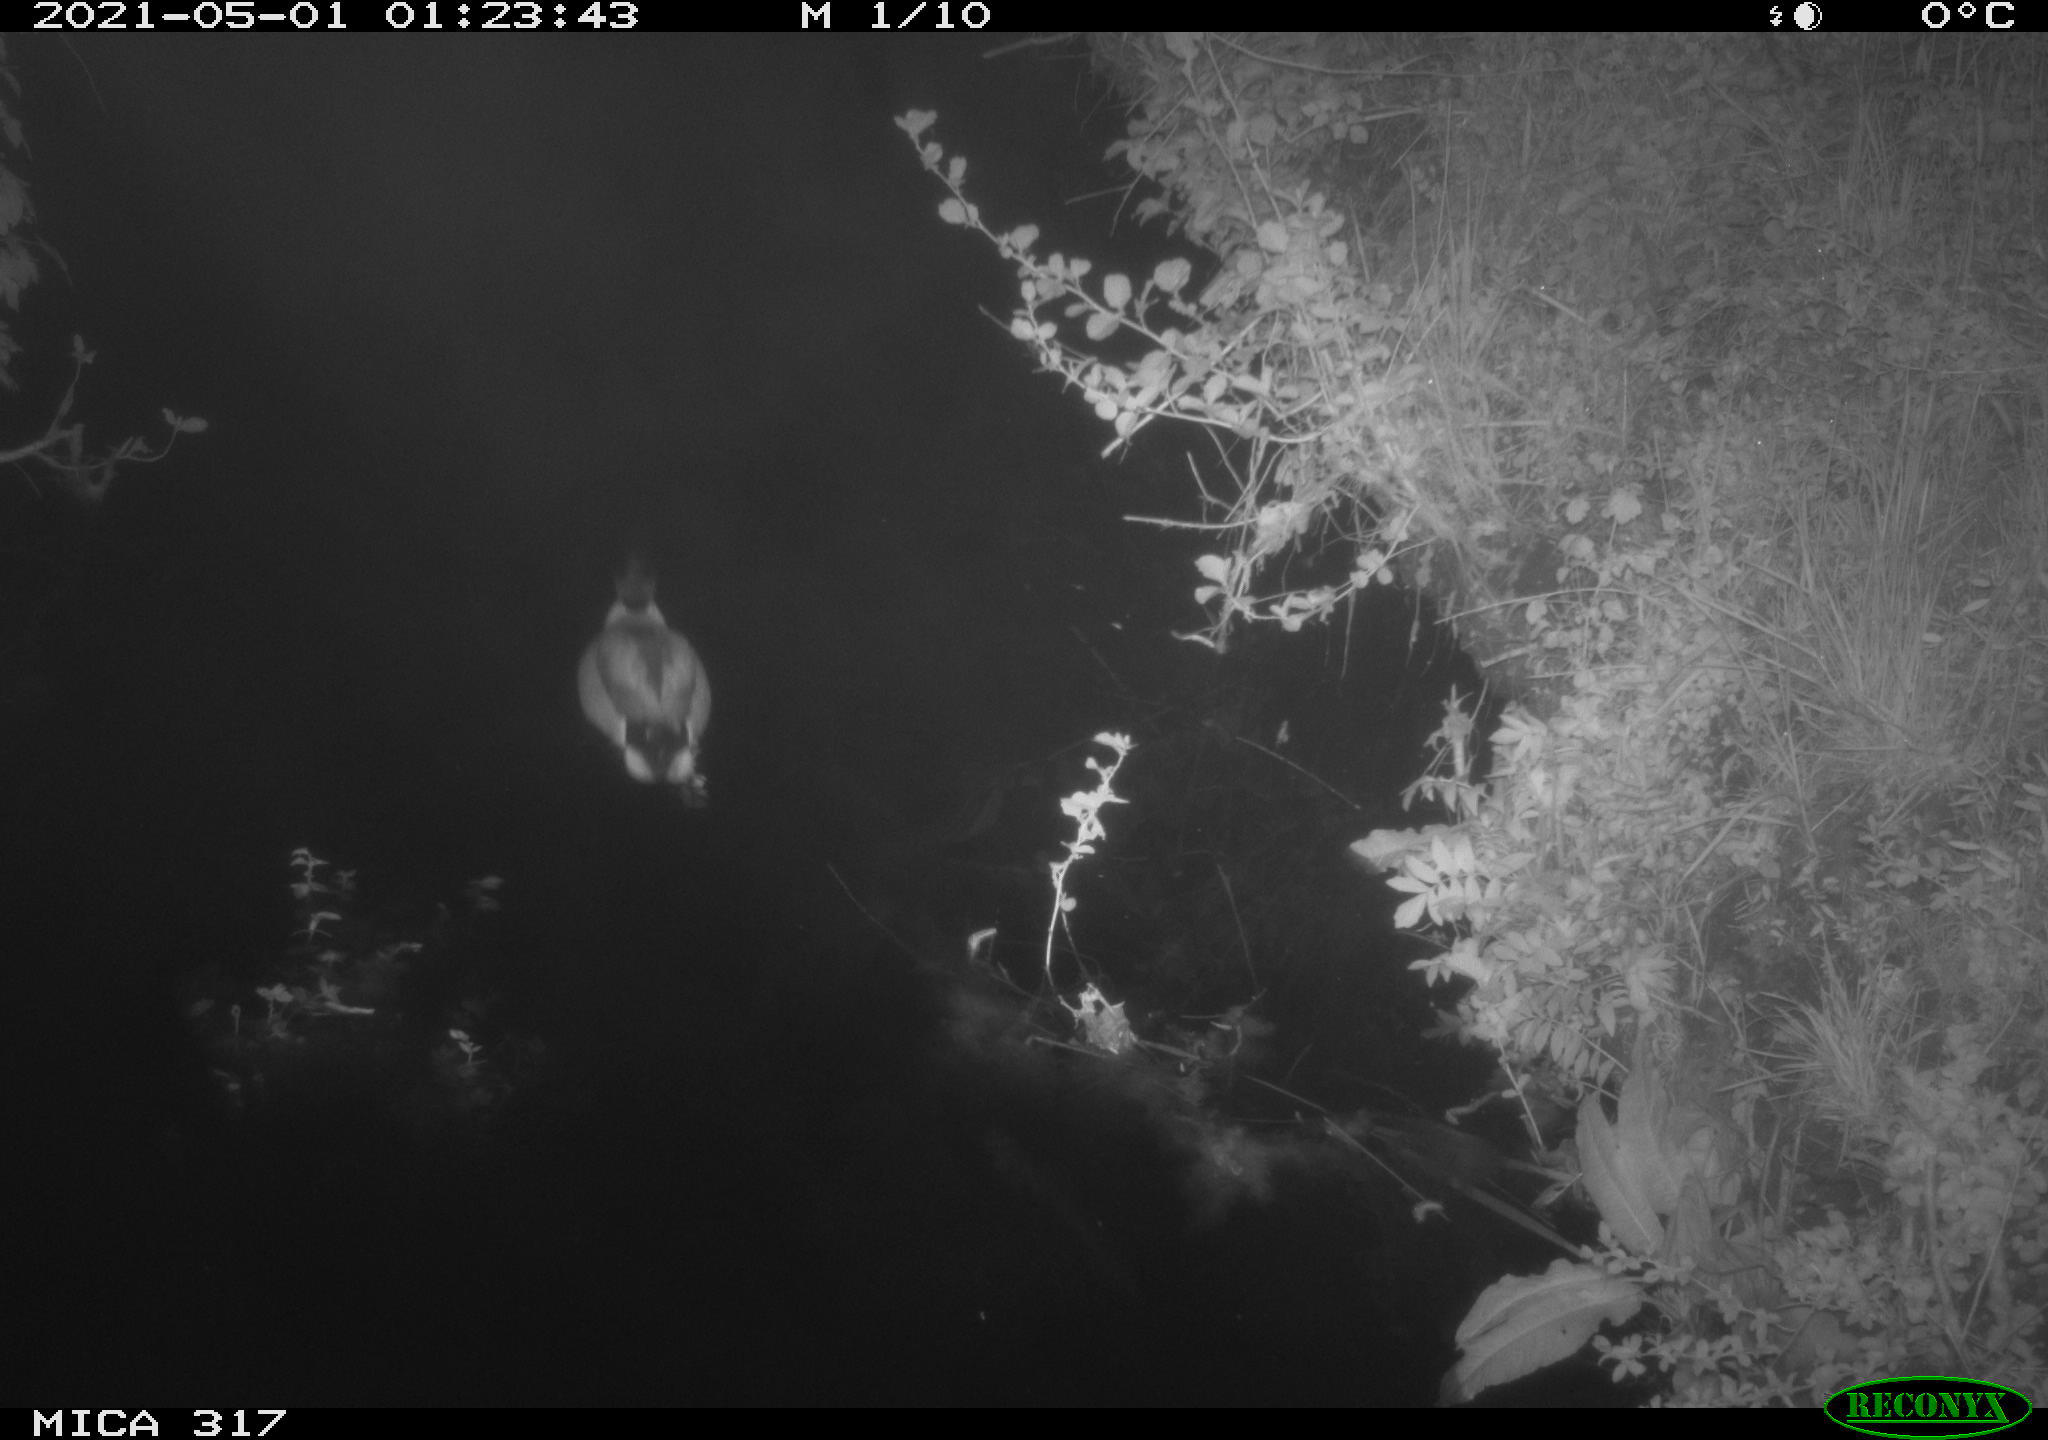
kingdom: Animalia
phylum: Chordata
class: Aves
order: Anseriformes
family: Anatidae
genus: Anas
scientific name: Anas
